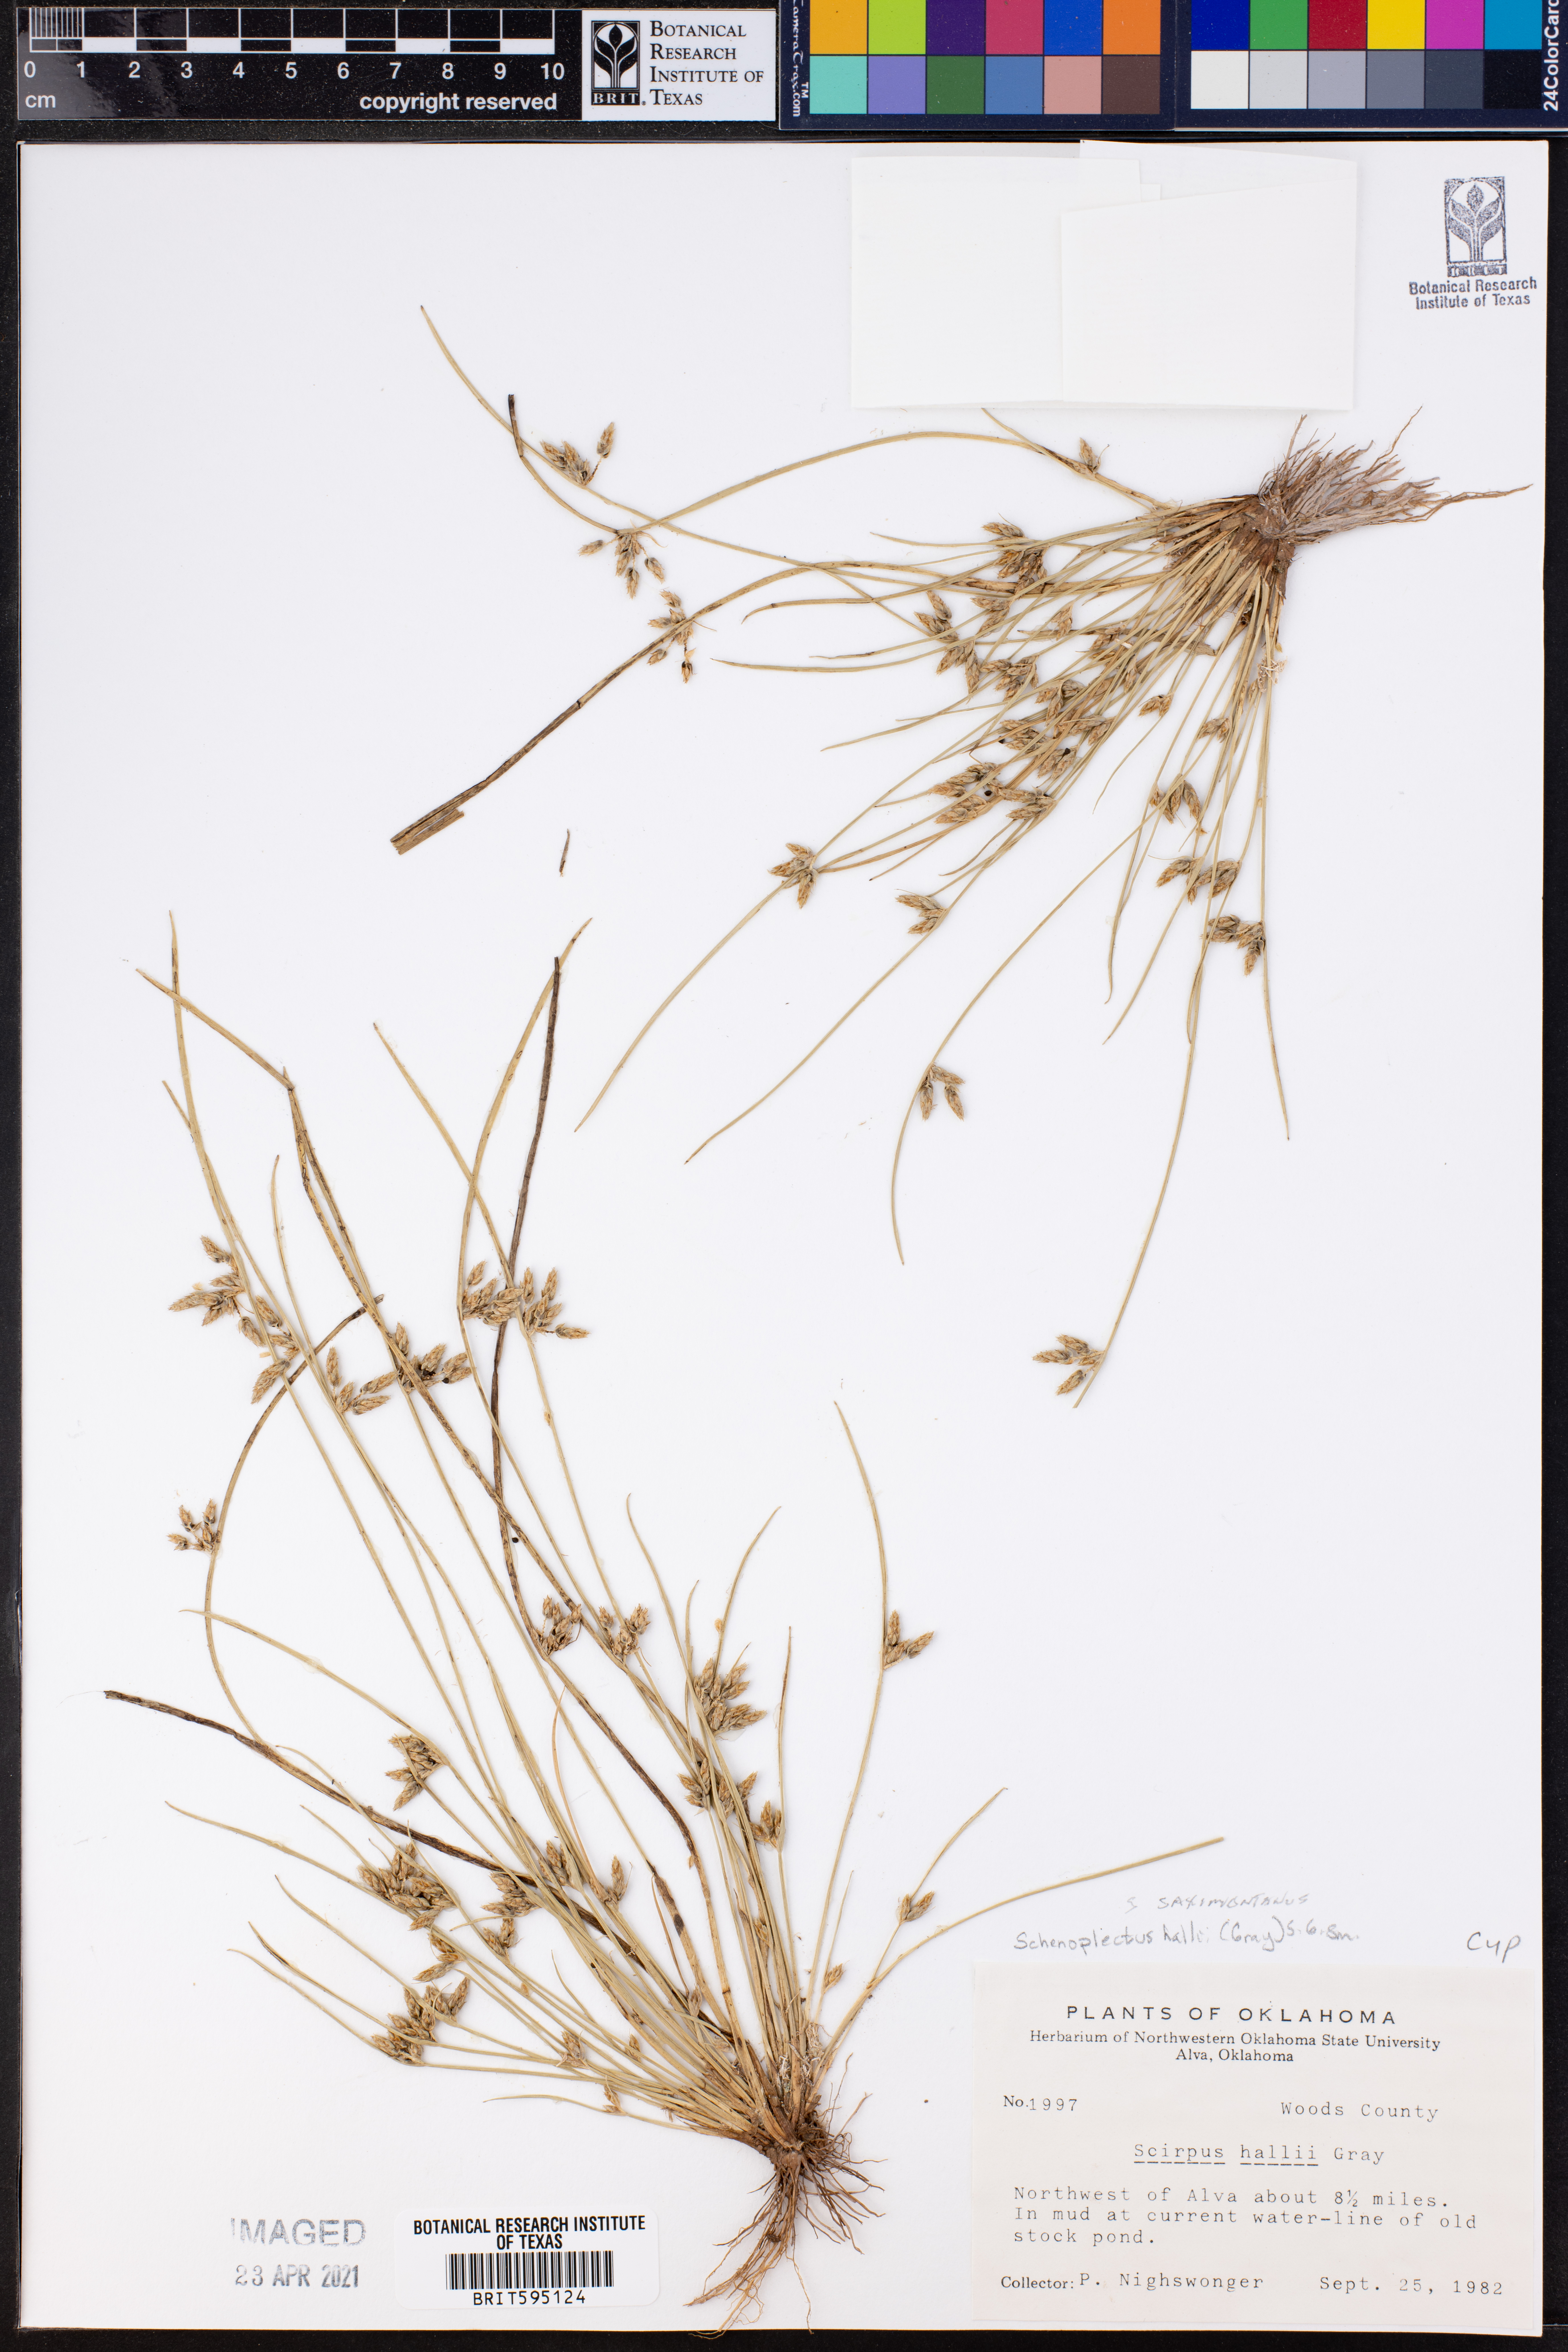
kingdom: Plantae
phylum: Tracheophyta
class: Liliopsida
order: Poales
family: Cyperaceae
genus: Schoenoplectiella
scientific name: Schoenoplectiella saximontana
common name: Rocky mountain clubrush
